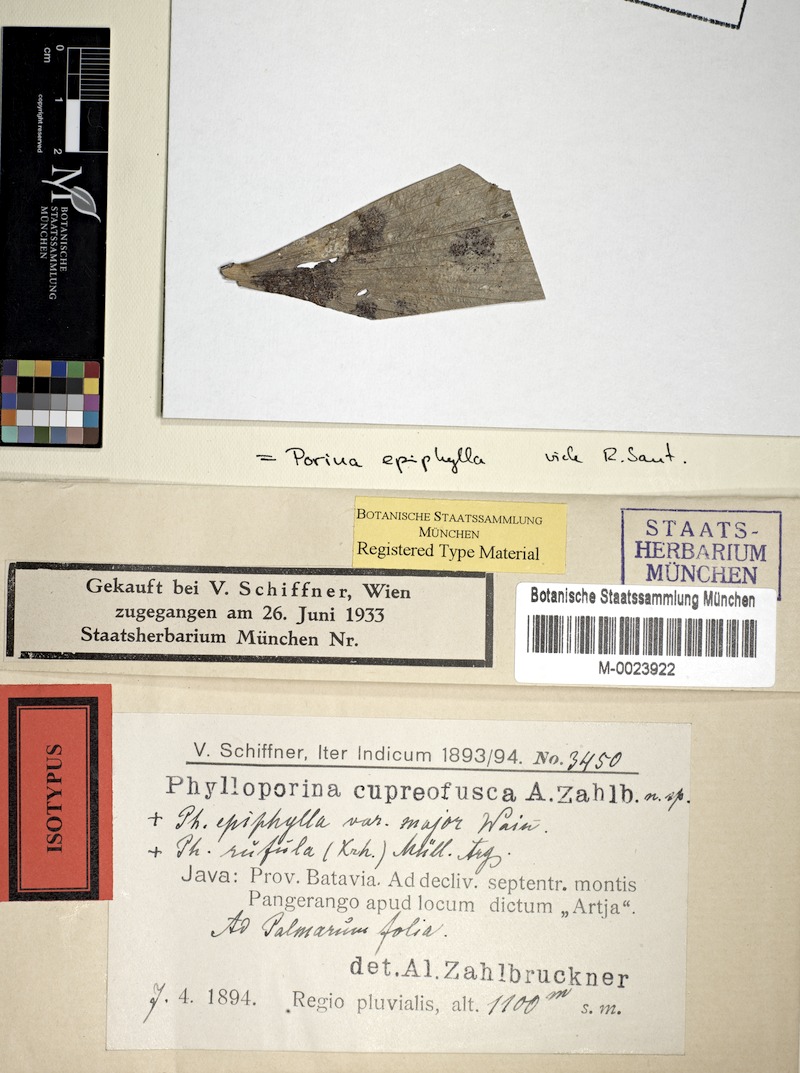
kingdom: Fungi
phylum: Ascomycota
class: Lecanoromycetes
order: Pertusariales
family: Pertusariaceae
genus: Porina
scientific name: Porina epiphylla
